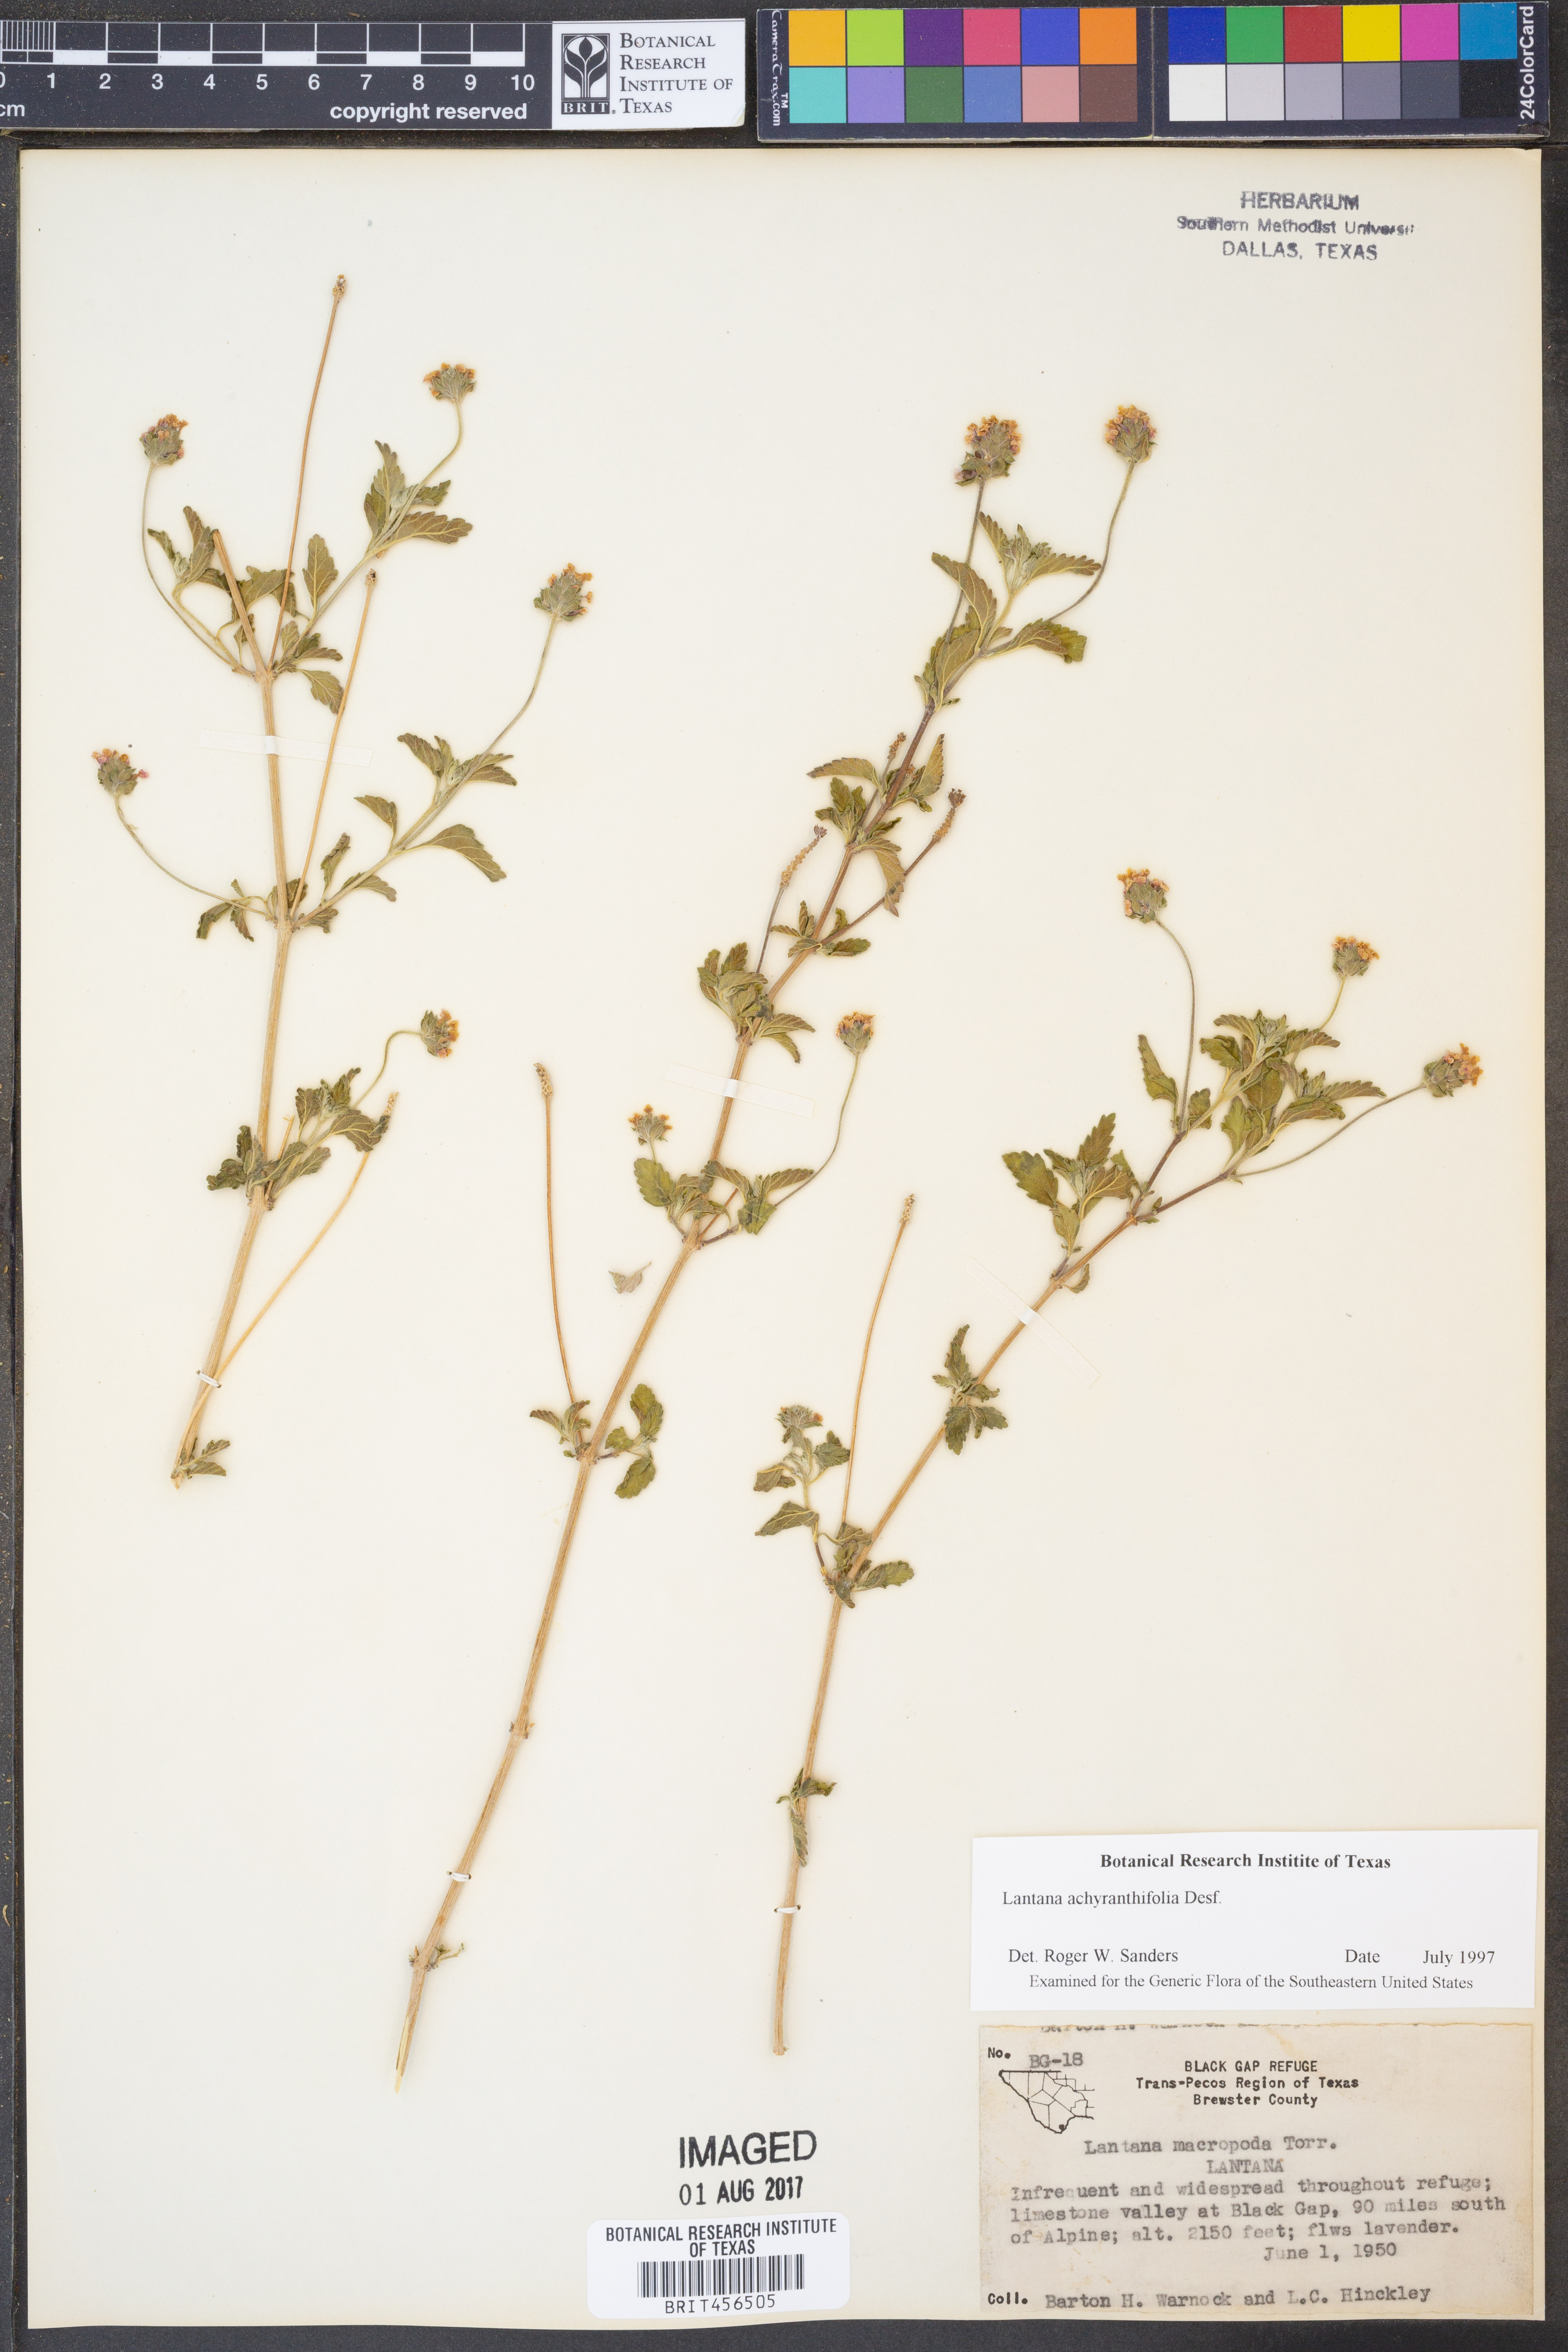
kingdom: Plantae
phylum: Tracheophyta
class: Magnoliopsida
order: Lamiales
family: Verbenaceae
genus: Lantana
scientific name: Lantana achyranthifolia
